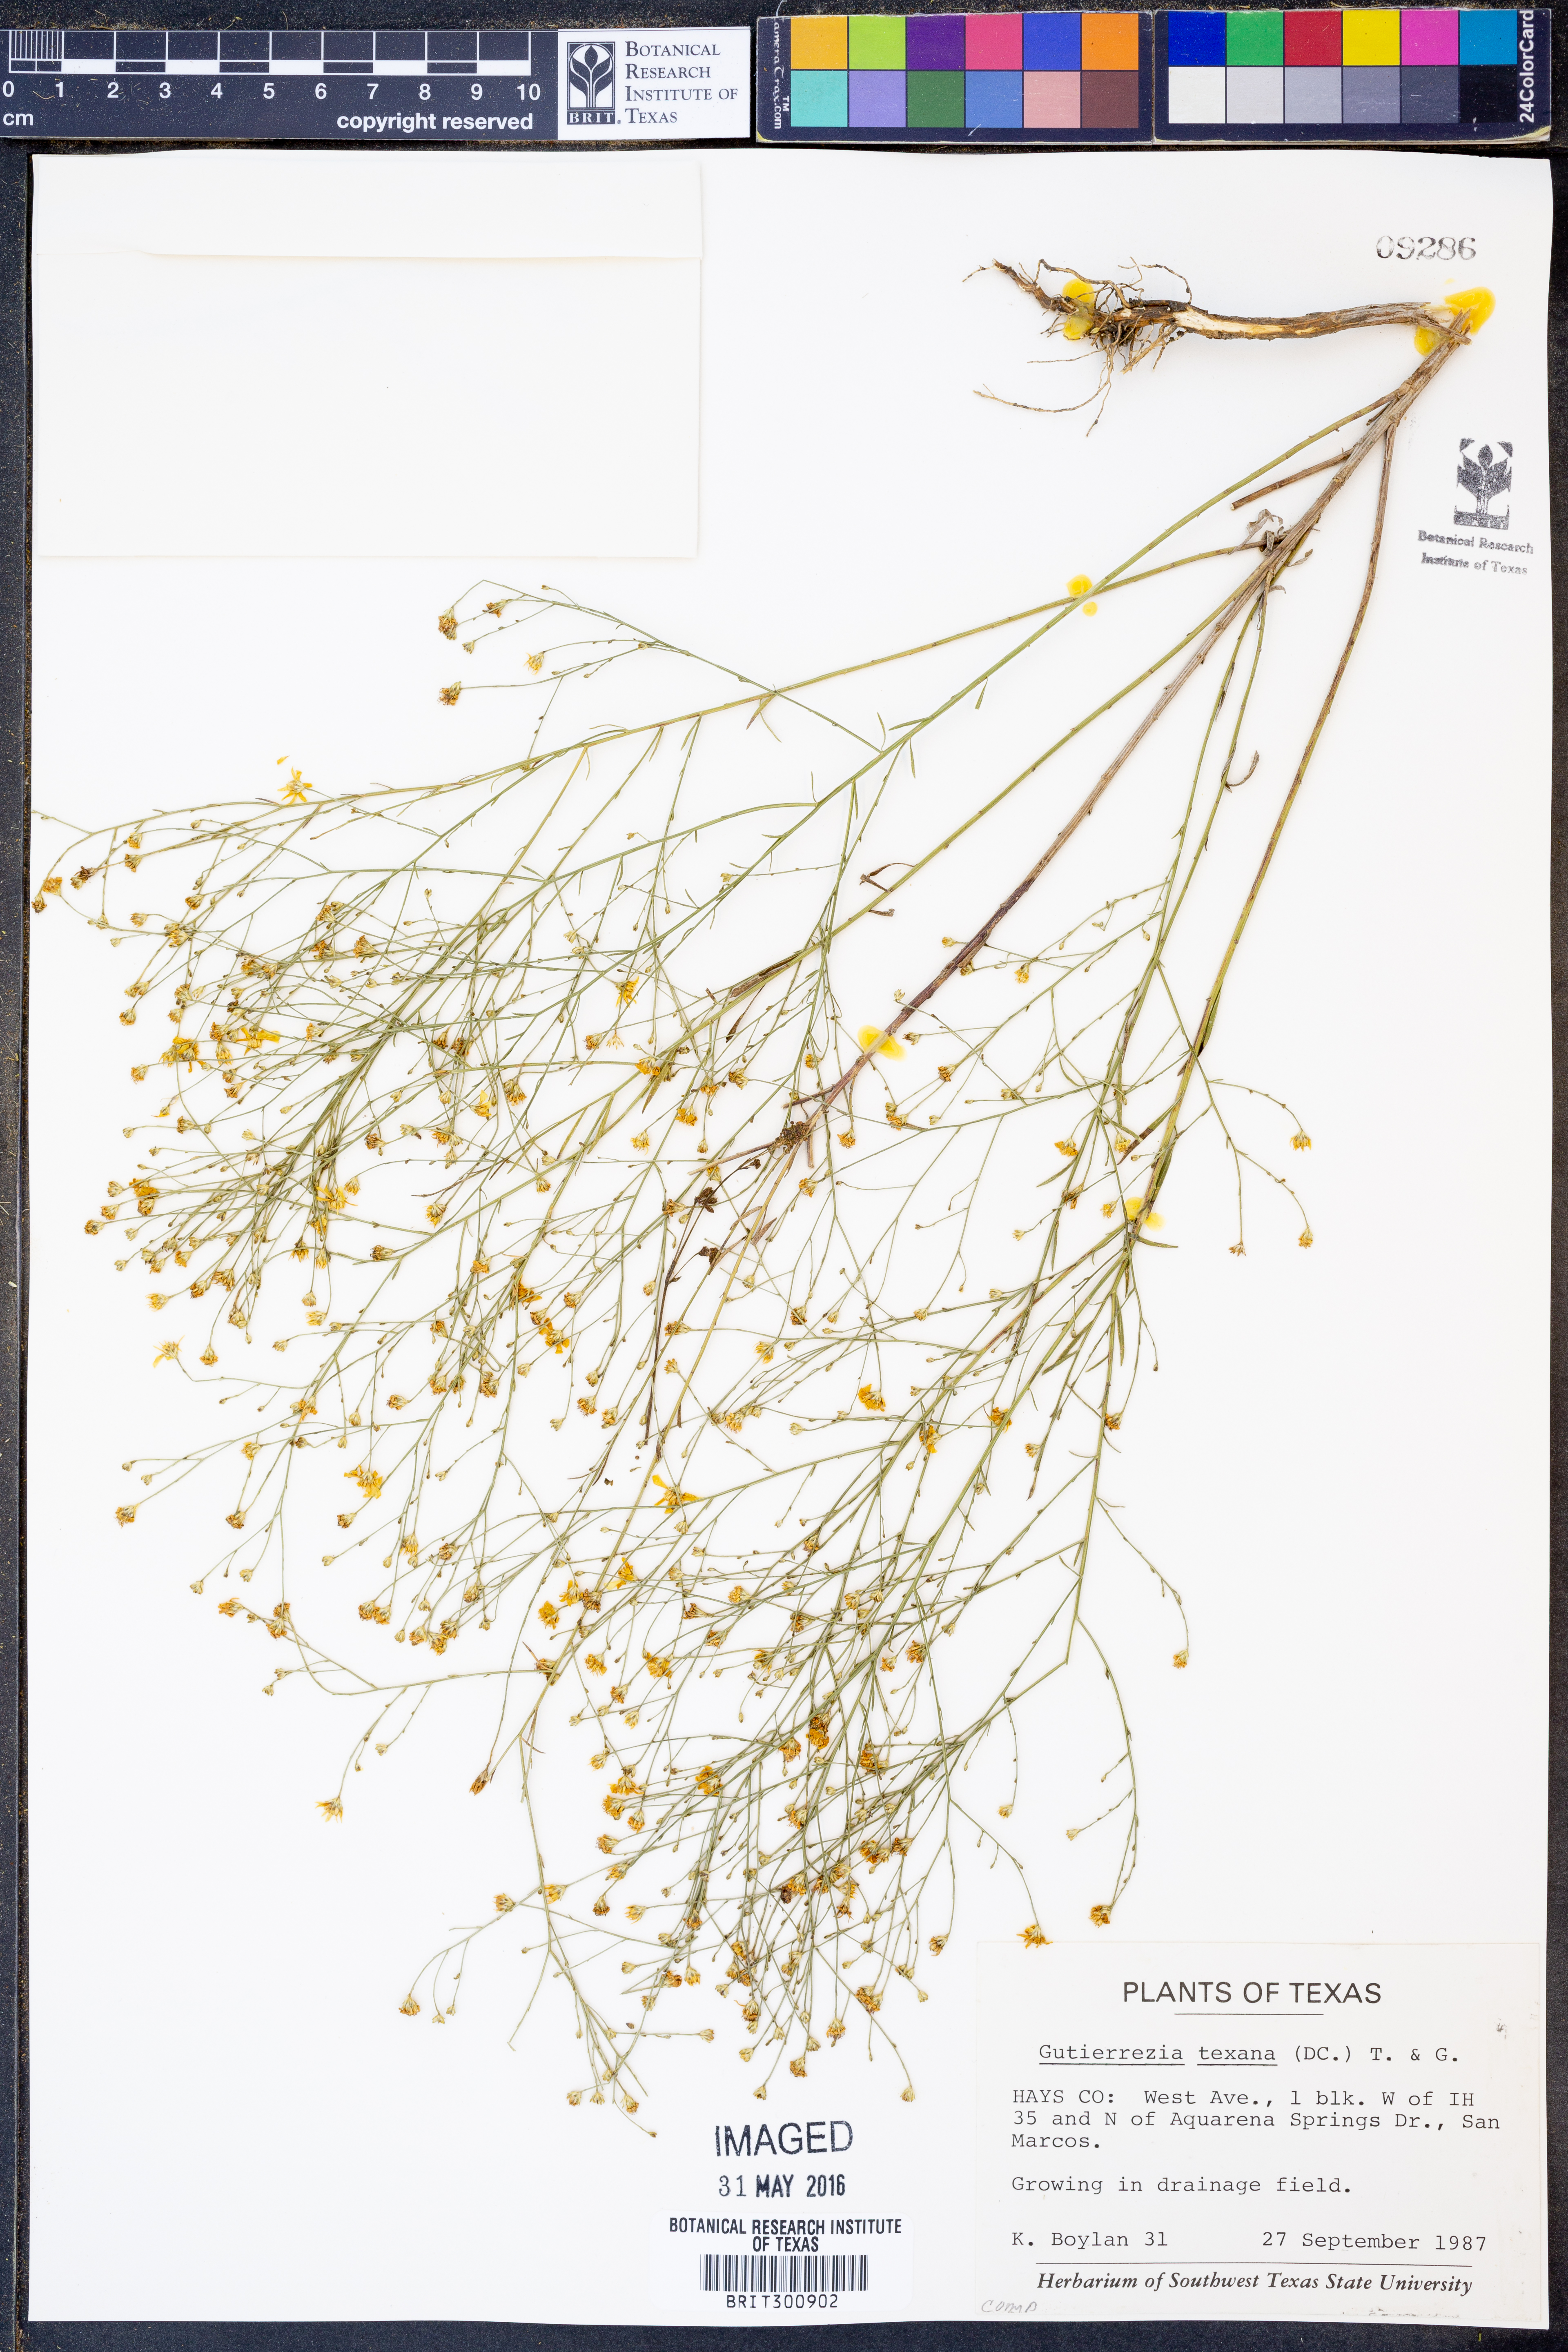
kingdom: Plantae
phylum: Tracheophyta
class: Magnoliopsida
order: Asterales
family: Asteraceae
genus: Gutierrezia
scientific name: Gutierrezia texana
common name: Texas snakeweed
